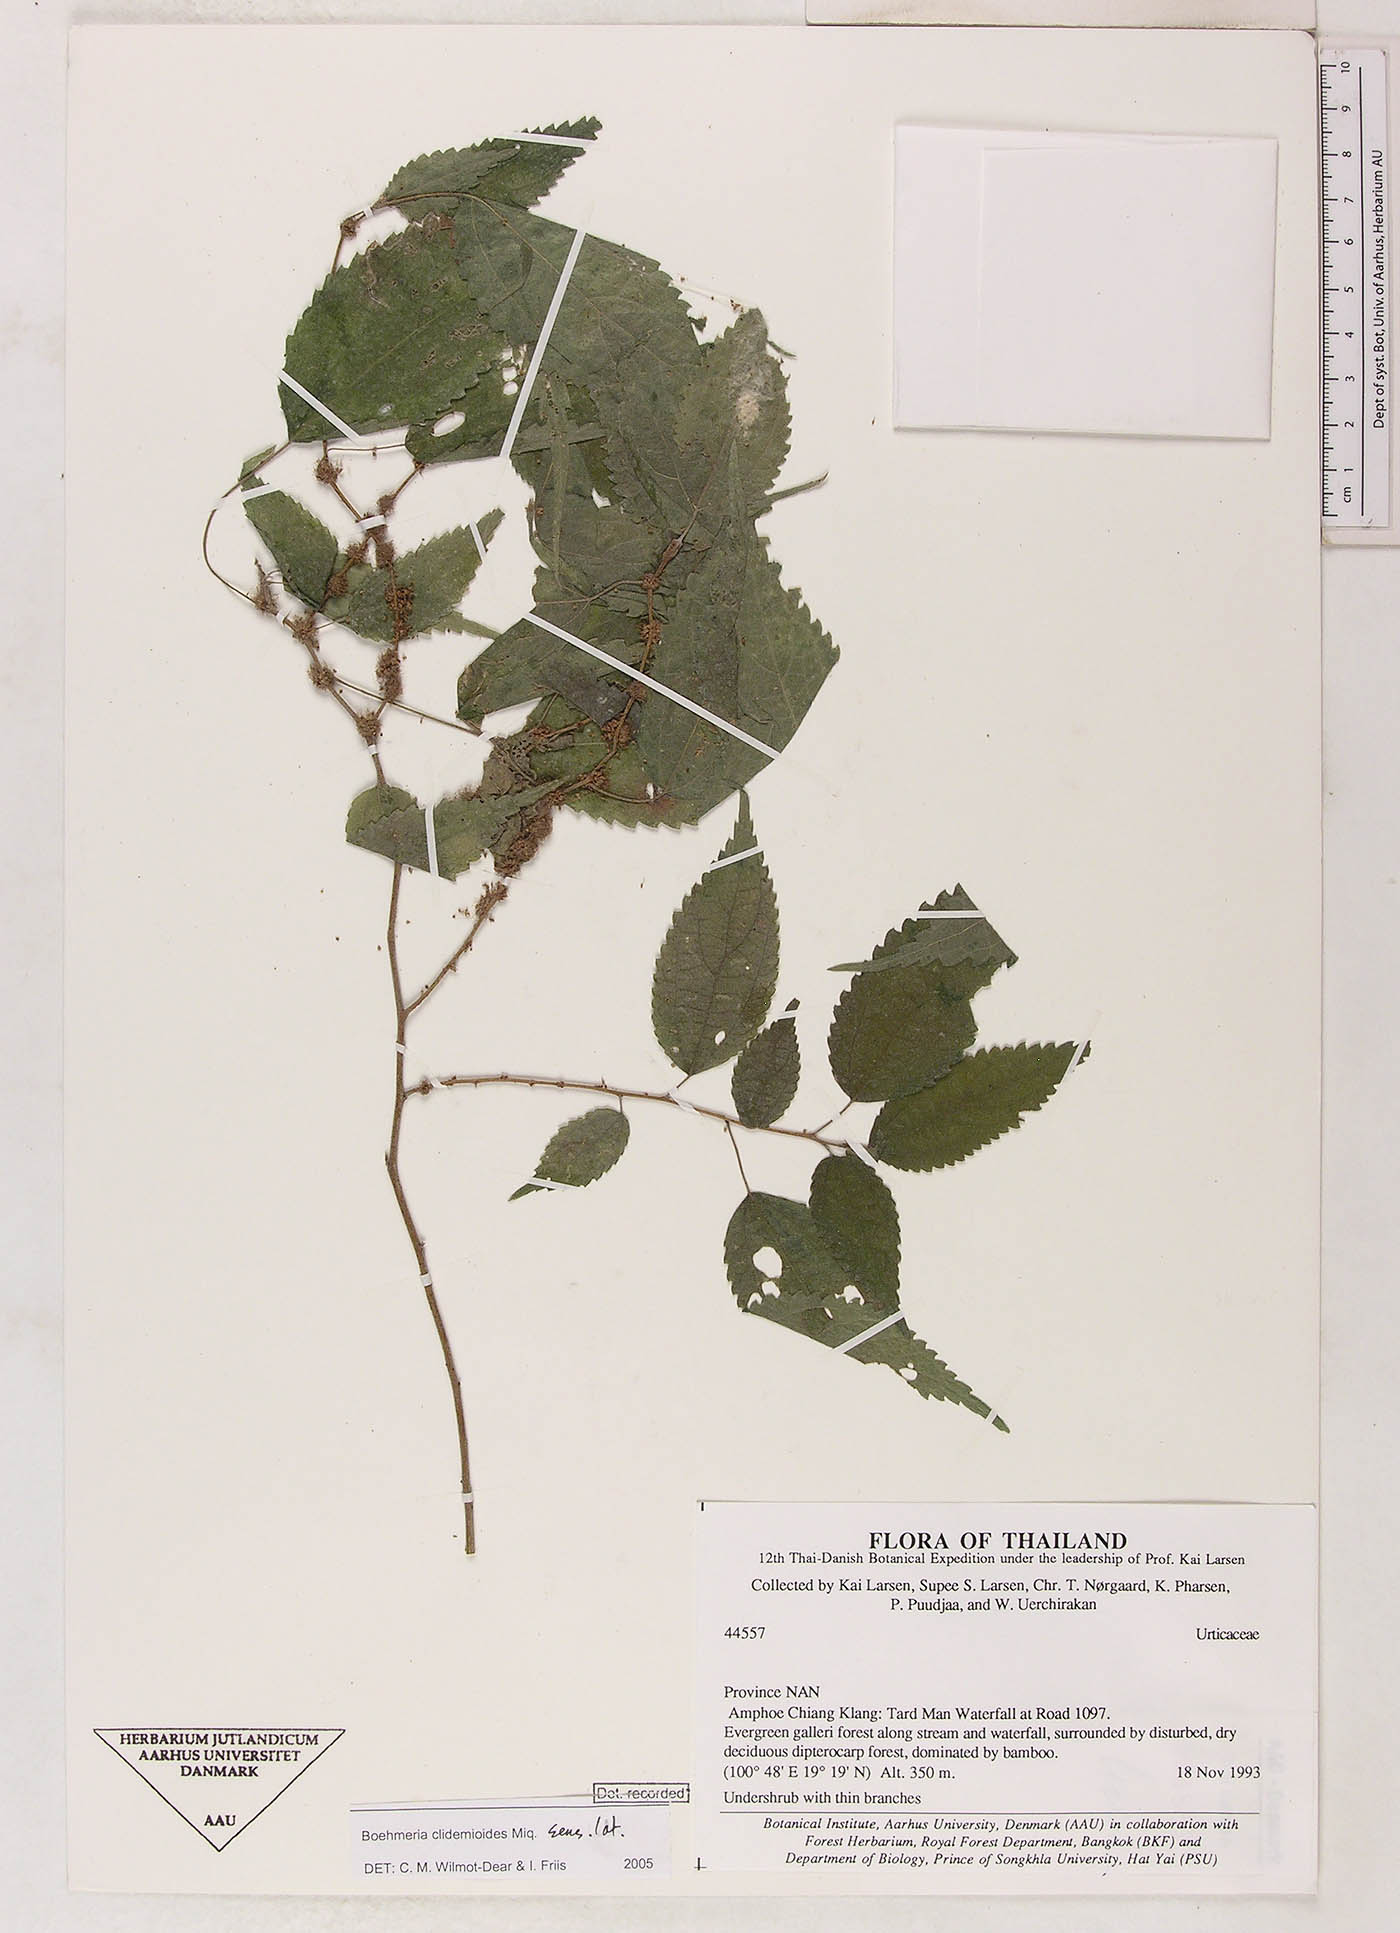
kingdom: Plantae
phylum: Tracheophyta
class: Magnoliopsida
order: Rosales
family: Urticaceae
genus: Boehmeria
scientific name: Boehmeria clidemioides
